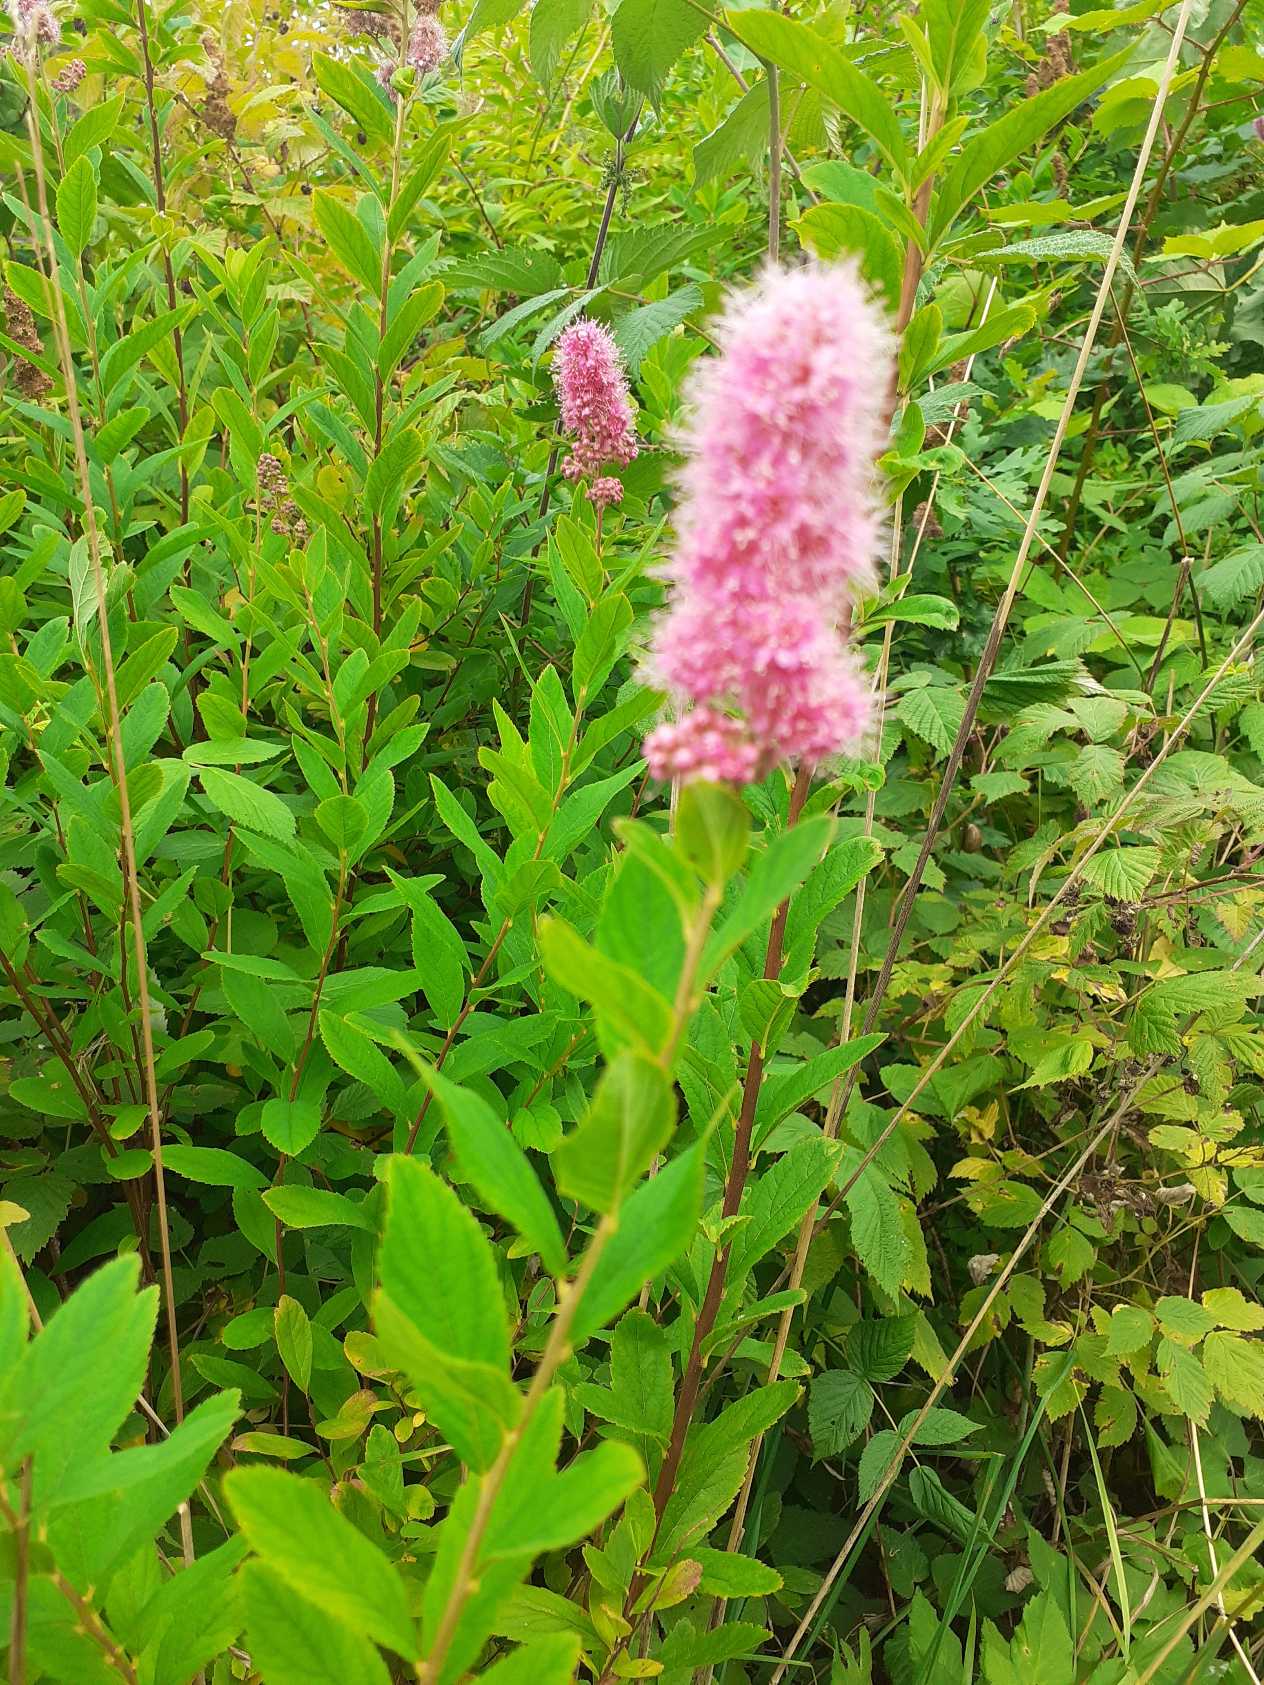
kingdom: Plantae
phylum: Tracheophyta
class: Magnoliopsida
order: Rosales
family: Rosaceae
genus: Spiraea
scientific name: Spiraea billardii
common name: Klase-spiræa
